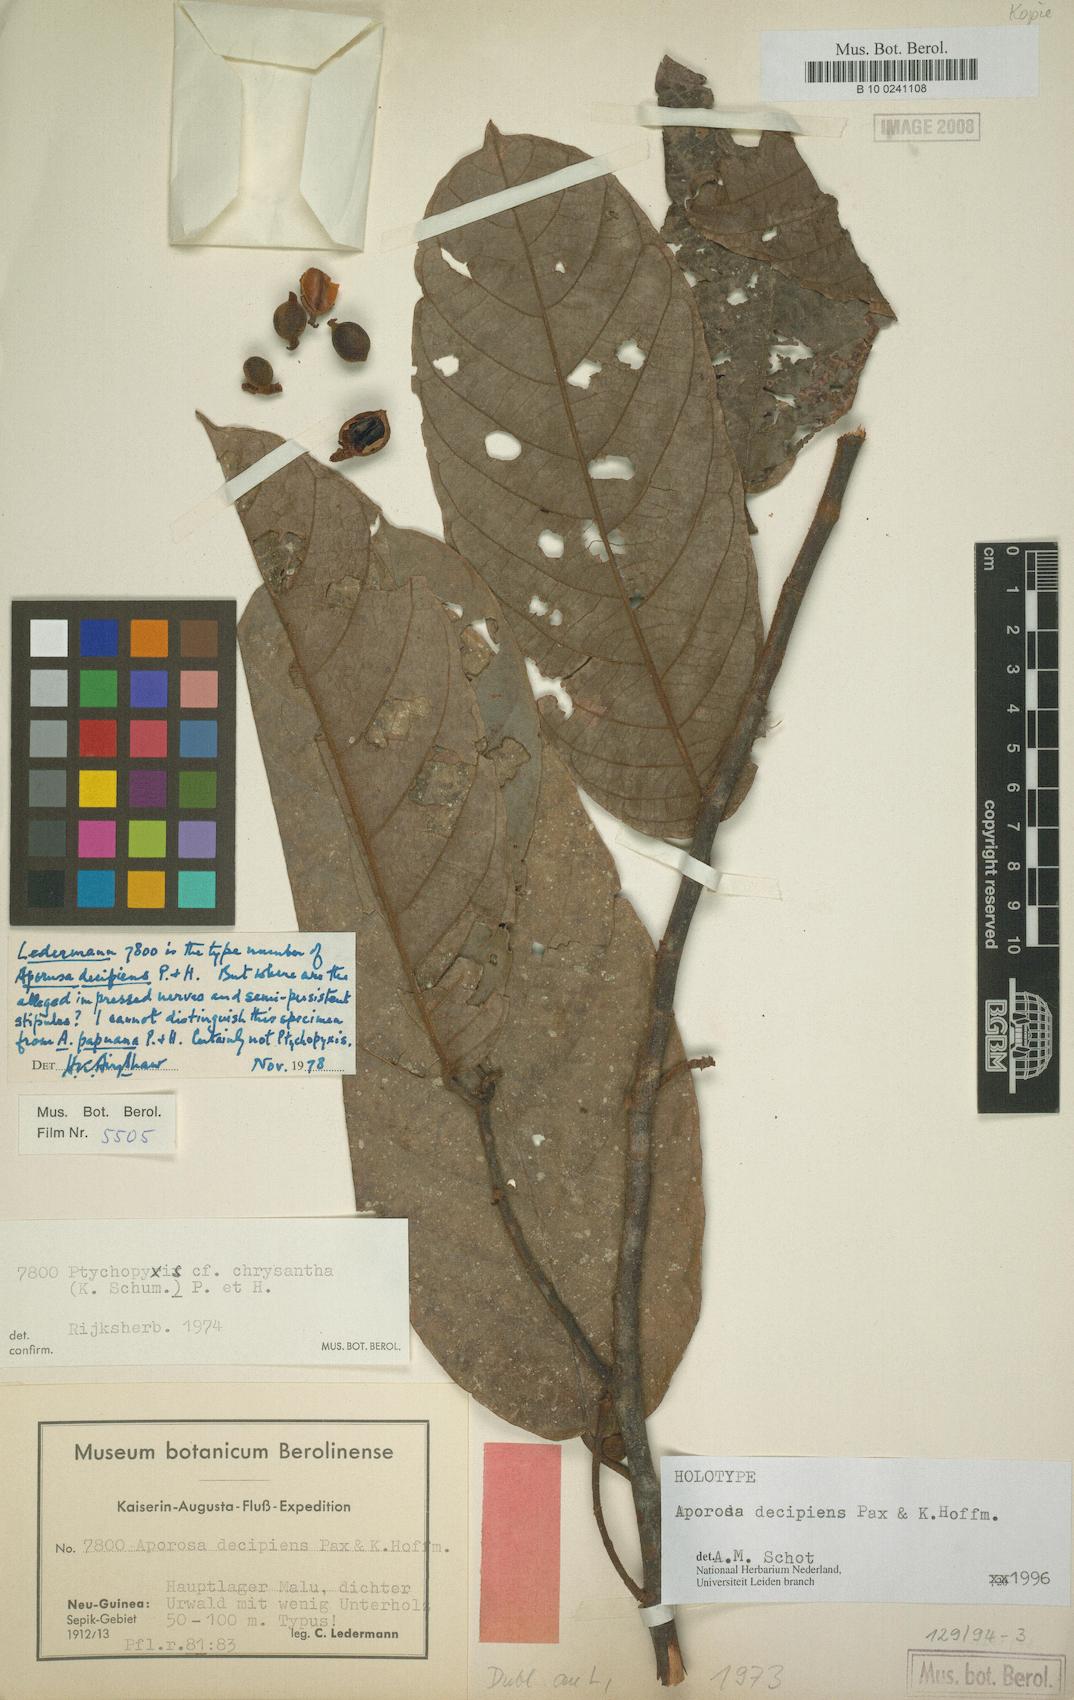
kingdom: Plantae
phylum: Tracheophyta
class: Magnoliopsida
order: Malpighiales
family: Phyllanthaceae
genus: Aporosa
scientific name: Aporosa decipiens
